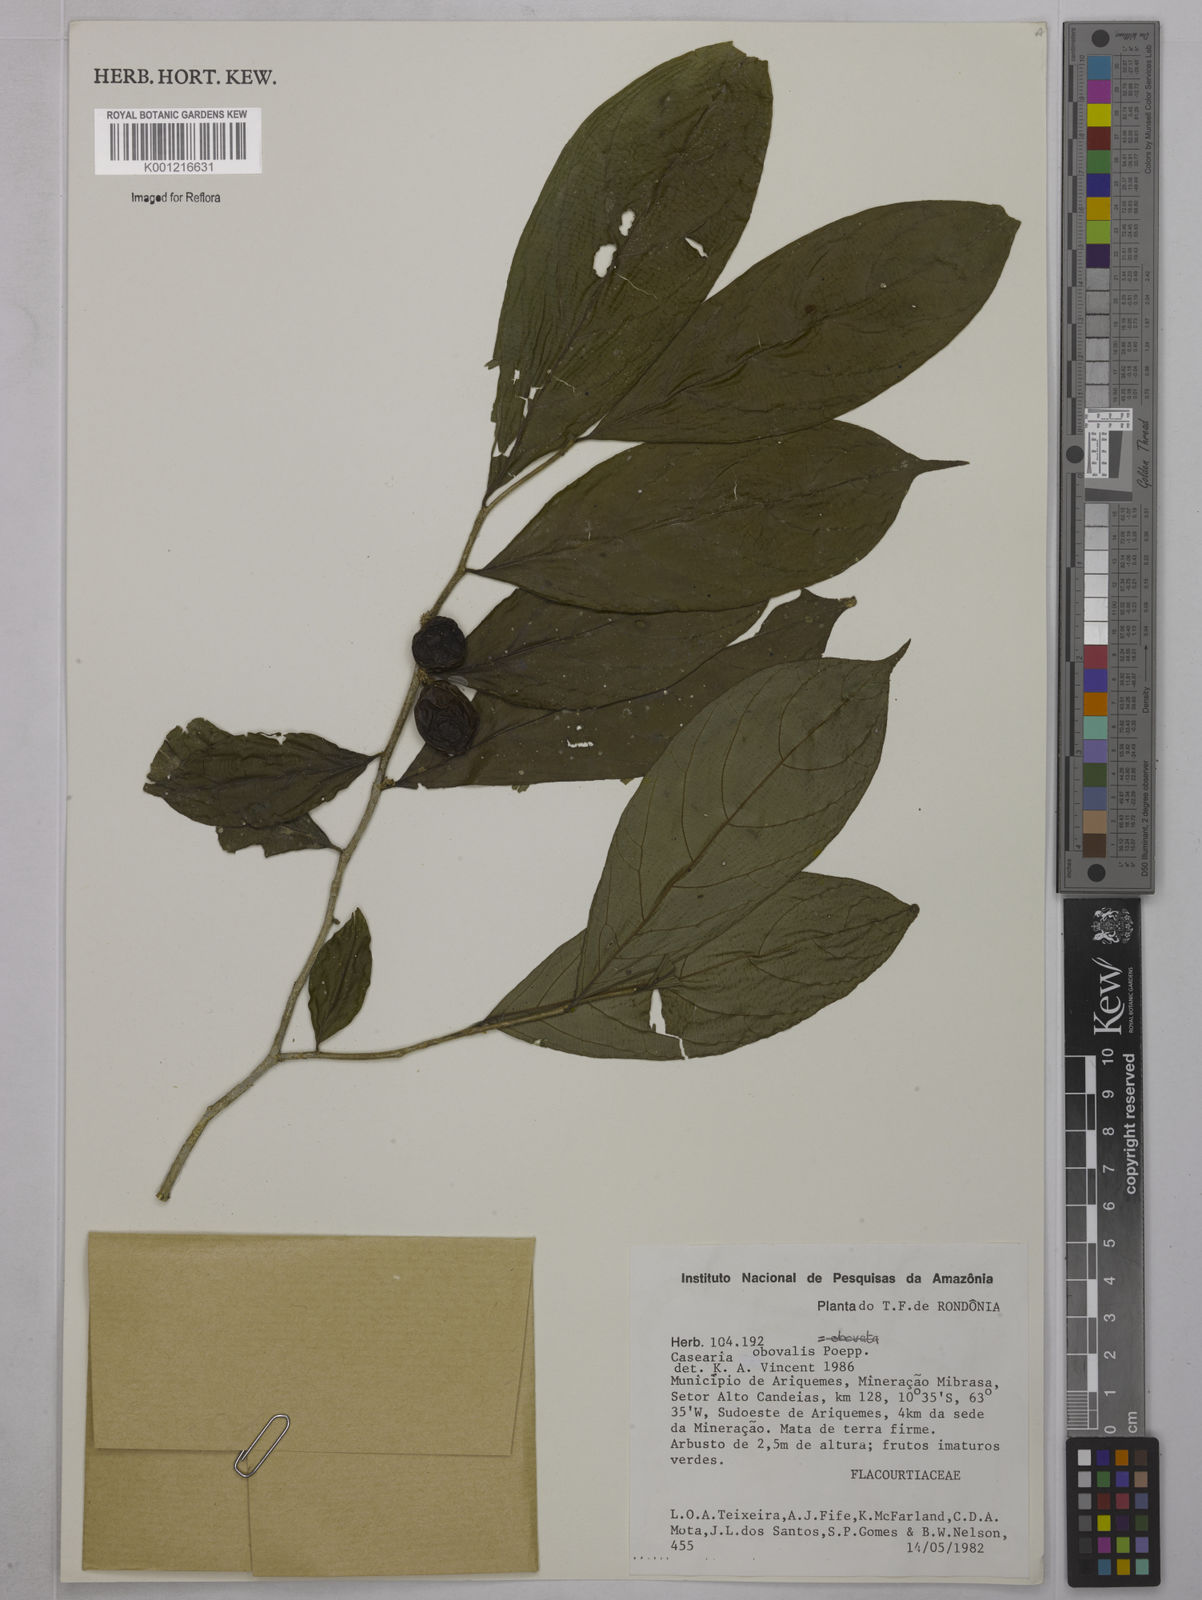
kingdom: Plantae
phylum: Tracheophyta
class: Magnoliopsida
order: Malpighiales
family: Salicaceae
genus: Casearia
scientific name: Casearia obovalis
